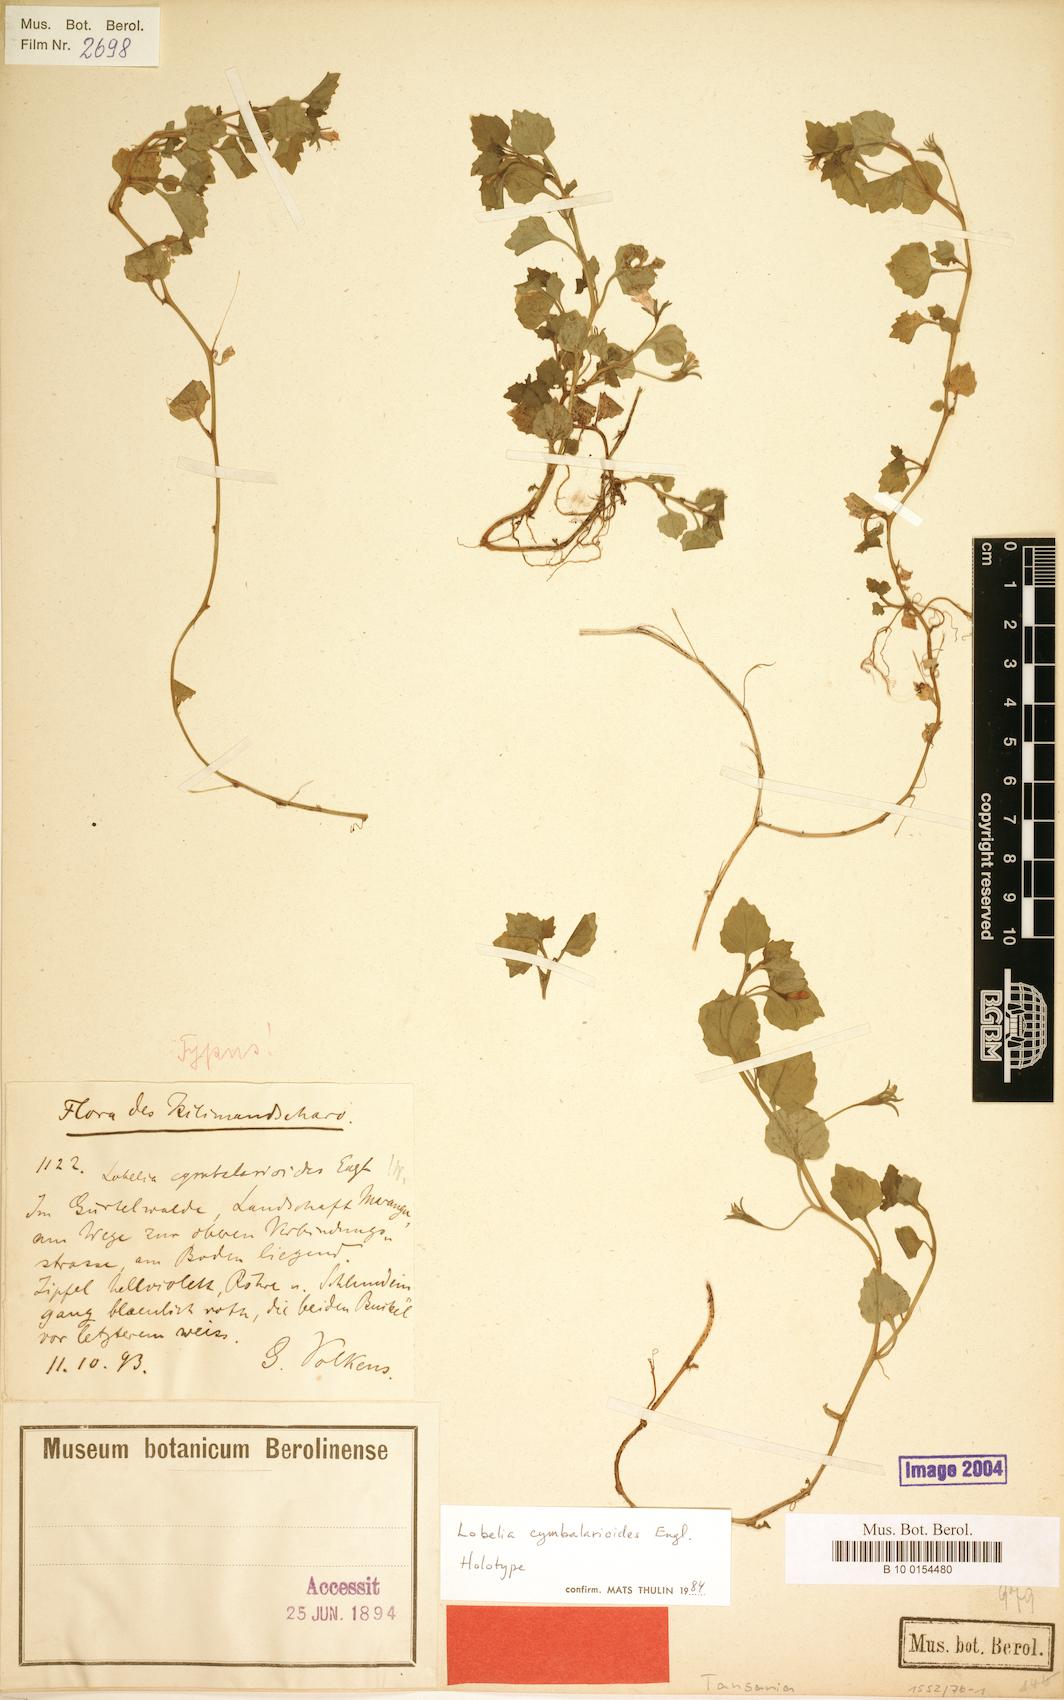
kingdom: Plantae
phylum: Tracheophyta
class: Magnoliopsida
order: Asterales
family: Campanulaceae
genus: Lobelia
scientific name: Lobelia cymbalarioides
